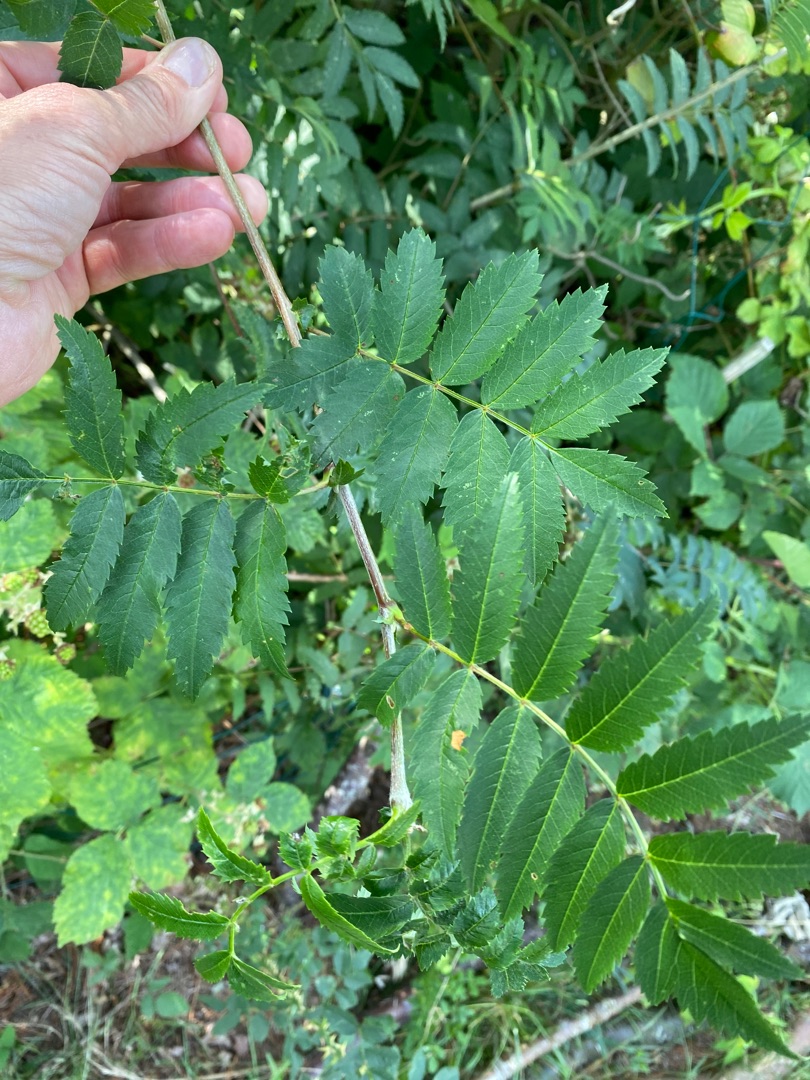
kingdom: Plantae
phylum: Tracheophyta
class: Magnoliopsida
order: Rosales
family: Rosaceae
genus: Sorbus
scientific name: Sorbus aucuparia
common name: Almindelig røn
